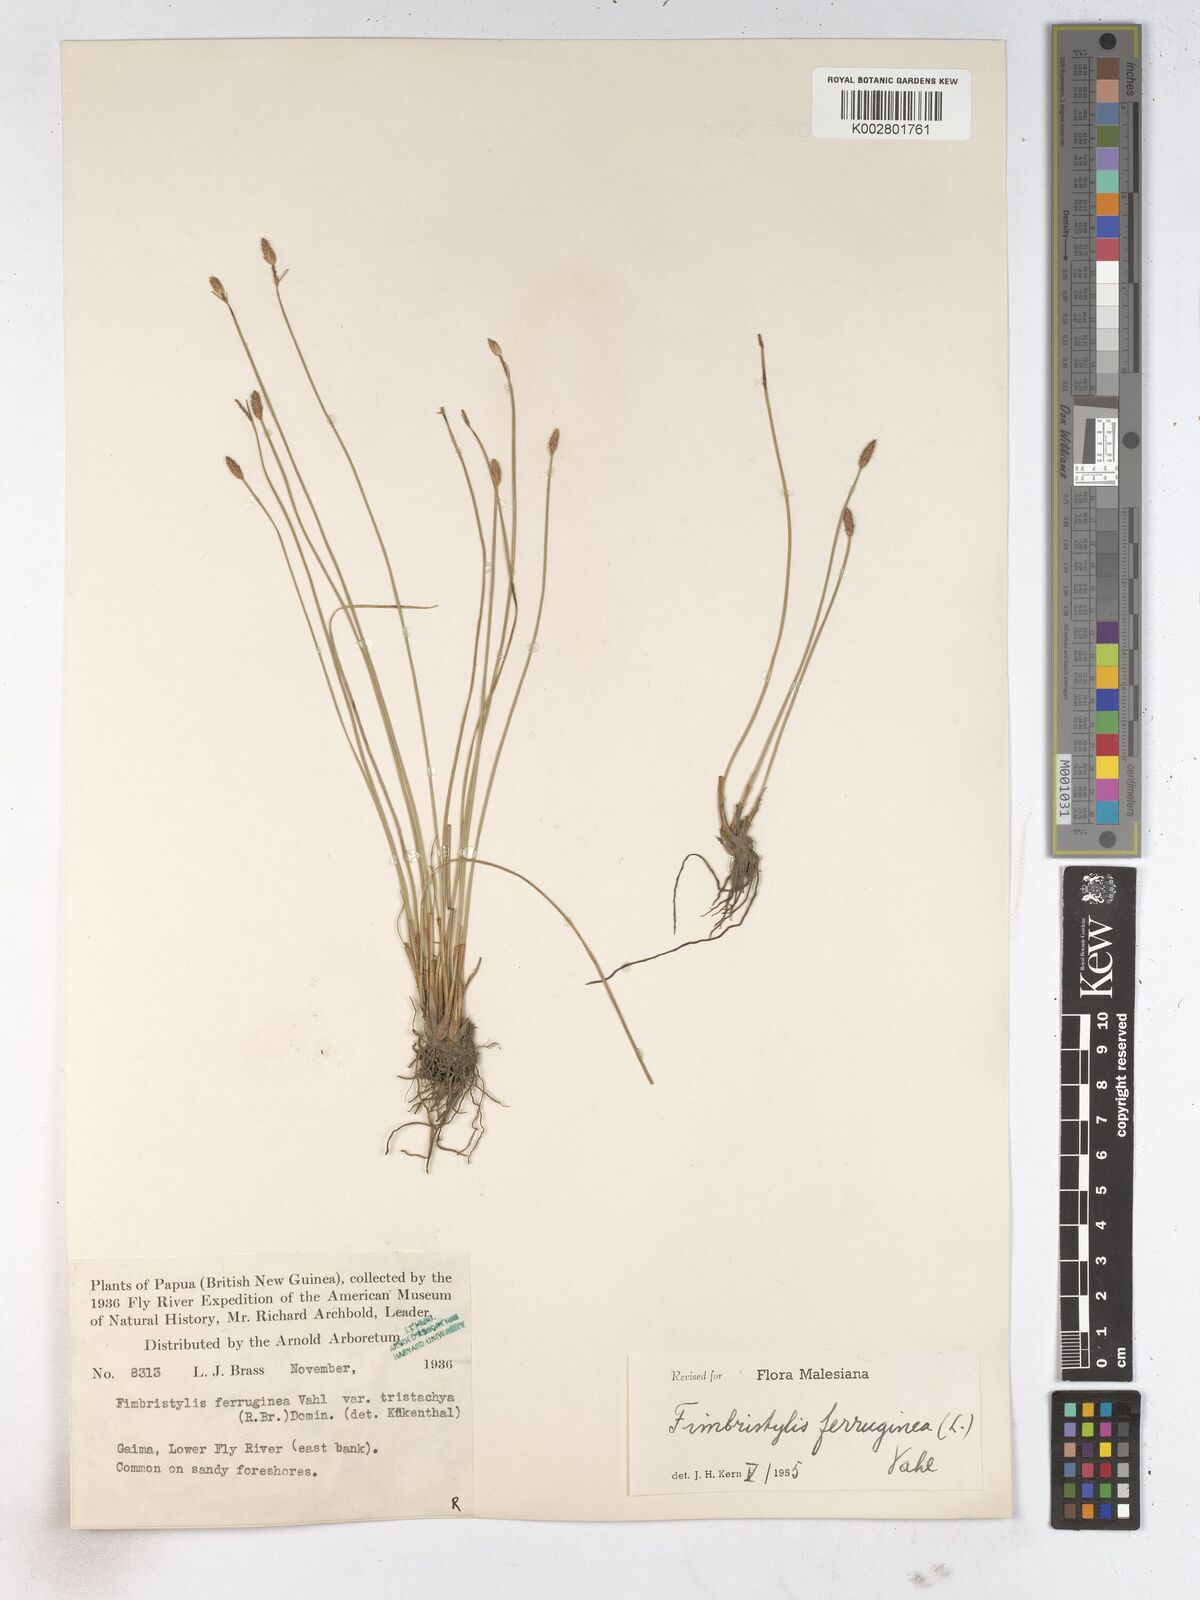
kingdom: Plantae
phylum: Tracheophyta
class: Liliopsida
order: Poales
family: Cyperaceae
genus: Fimbristylis
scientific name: Fimbristylis ferruginea
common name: West indian fimbry
